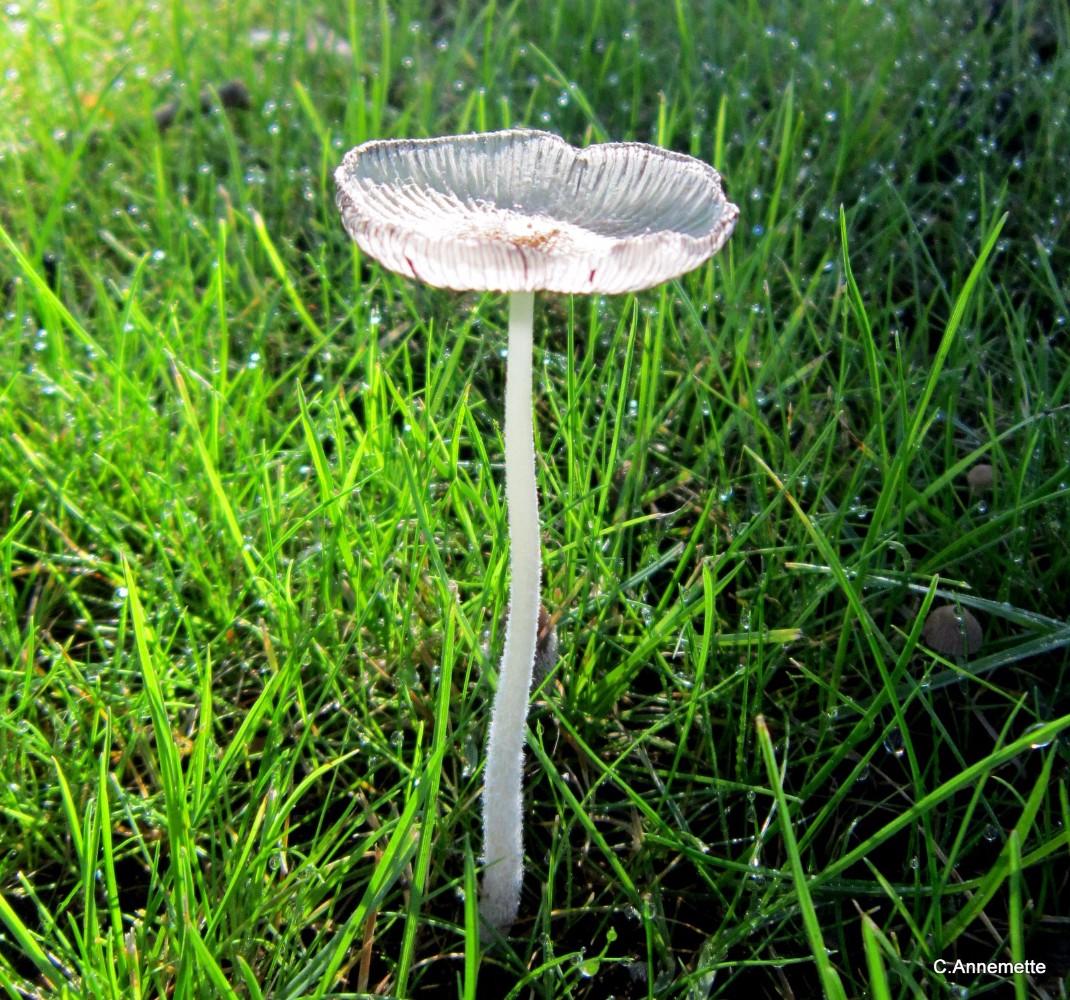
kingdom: Fungi
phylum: Basidiomycota
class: Agaricomycetes
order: Agaricales
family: Psathyrellaceae
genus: Coprinopsis
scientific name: Coprinopsis lagopus
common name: dunstokket blækhat
